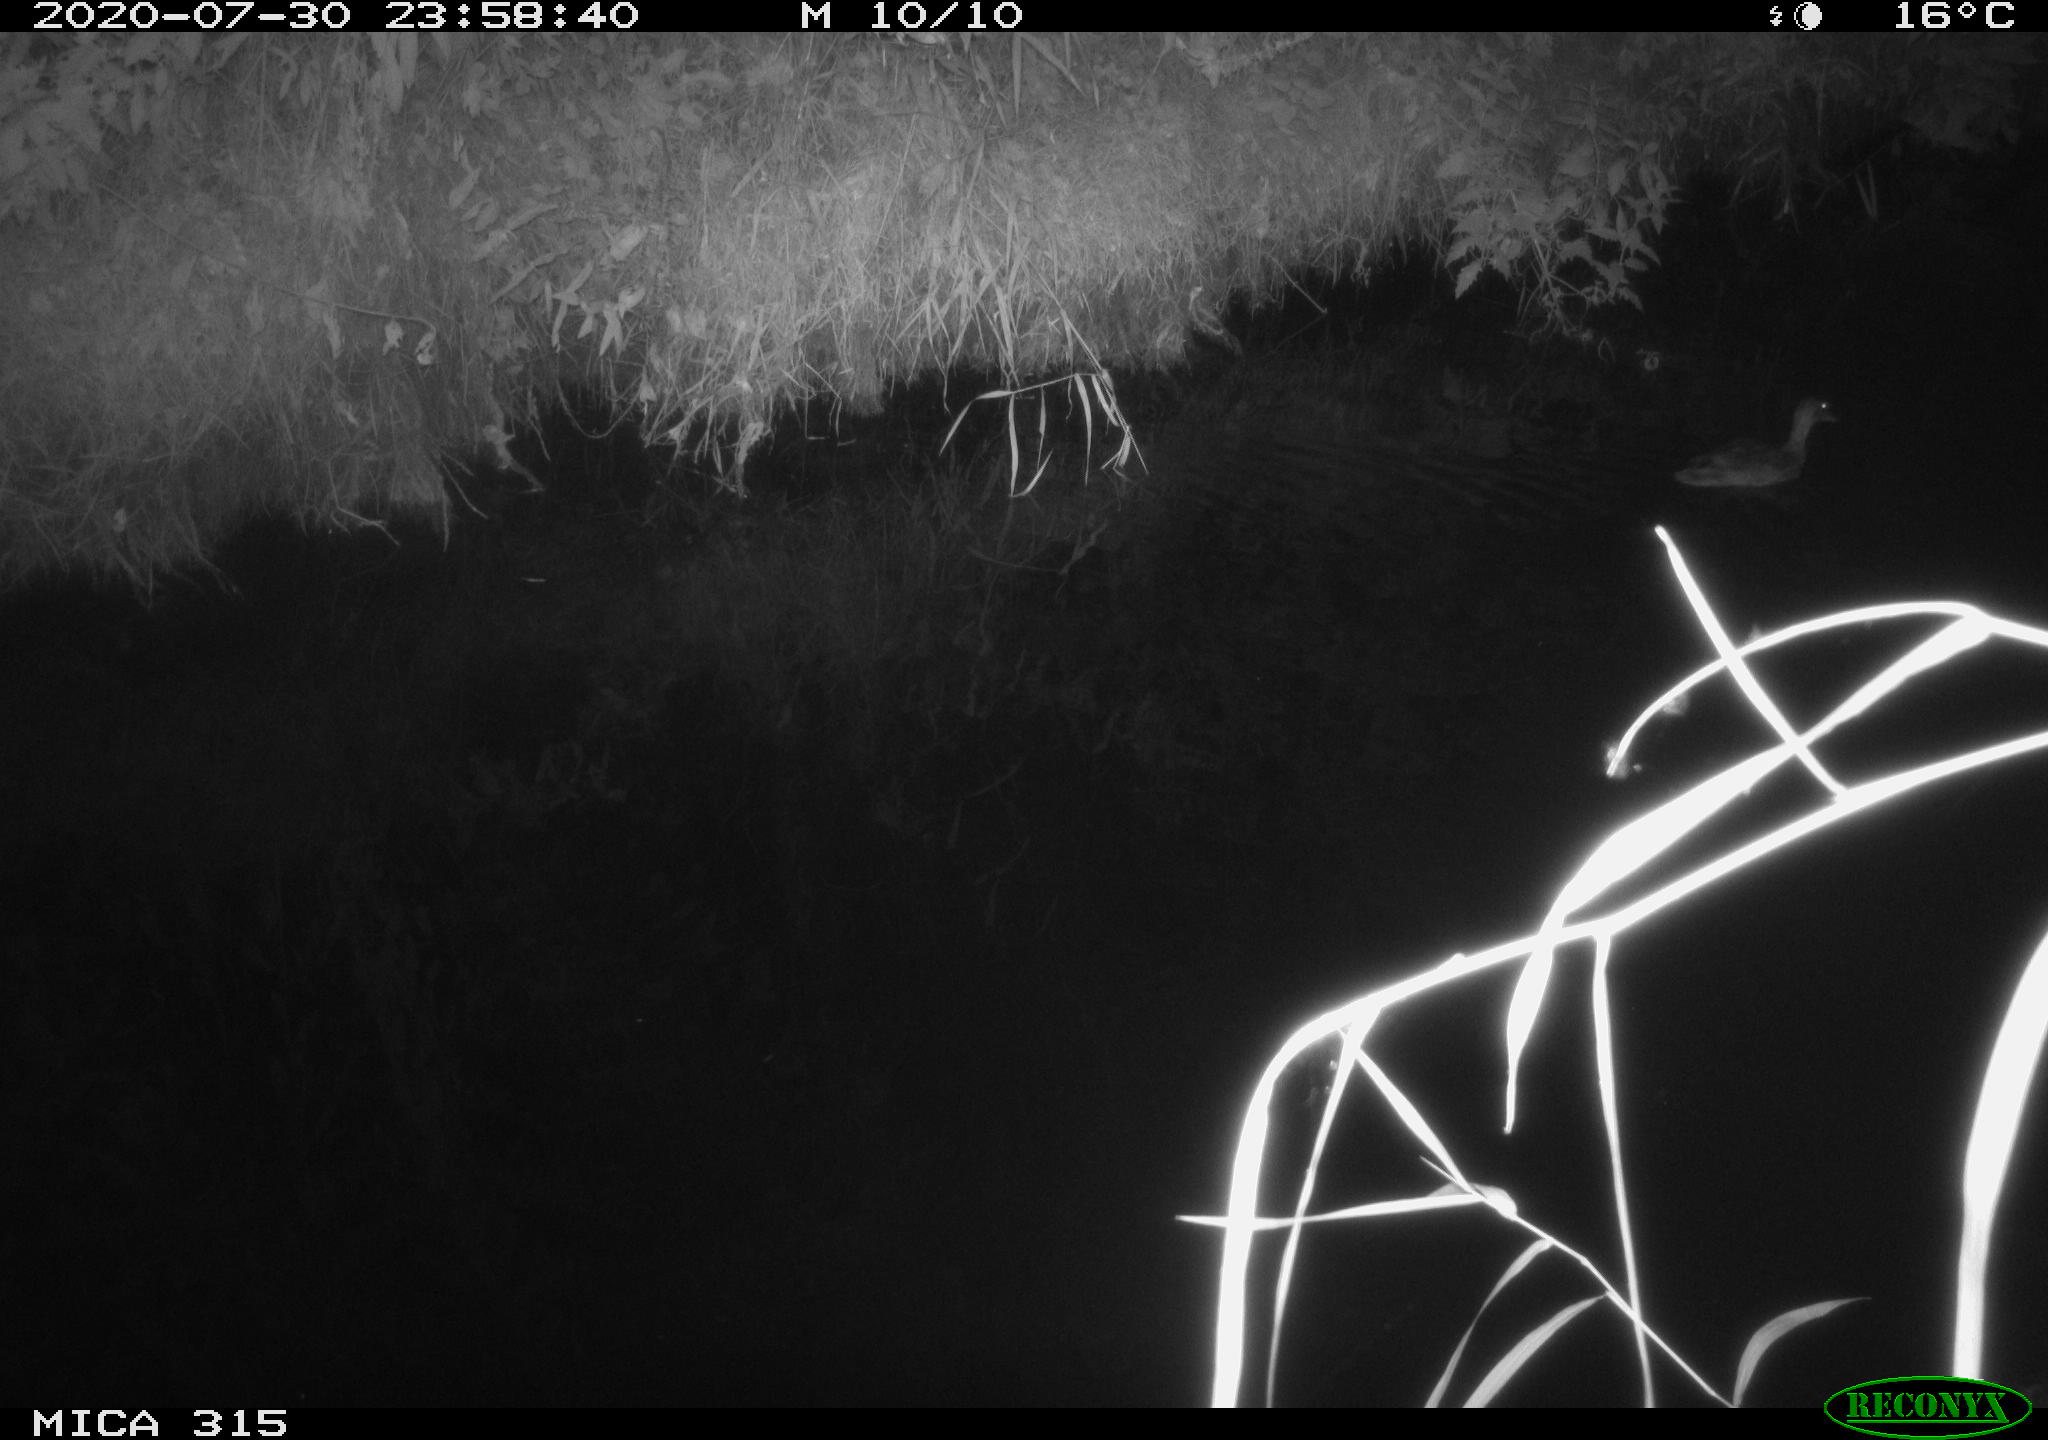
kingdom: Animalia
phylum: Chordata
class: Aves
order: Anseriformes
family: Anatidae
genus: Anas
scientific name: Anas platyrhynchos
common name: Mallard
